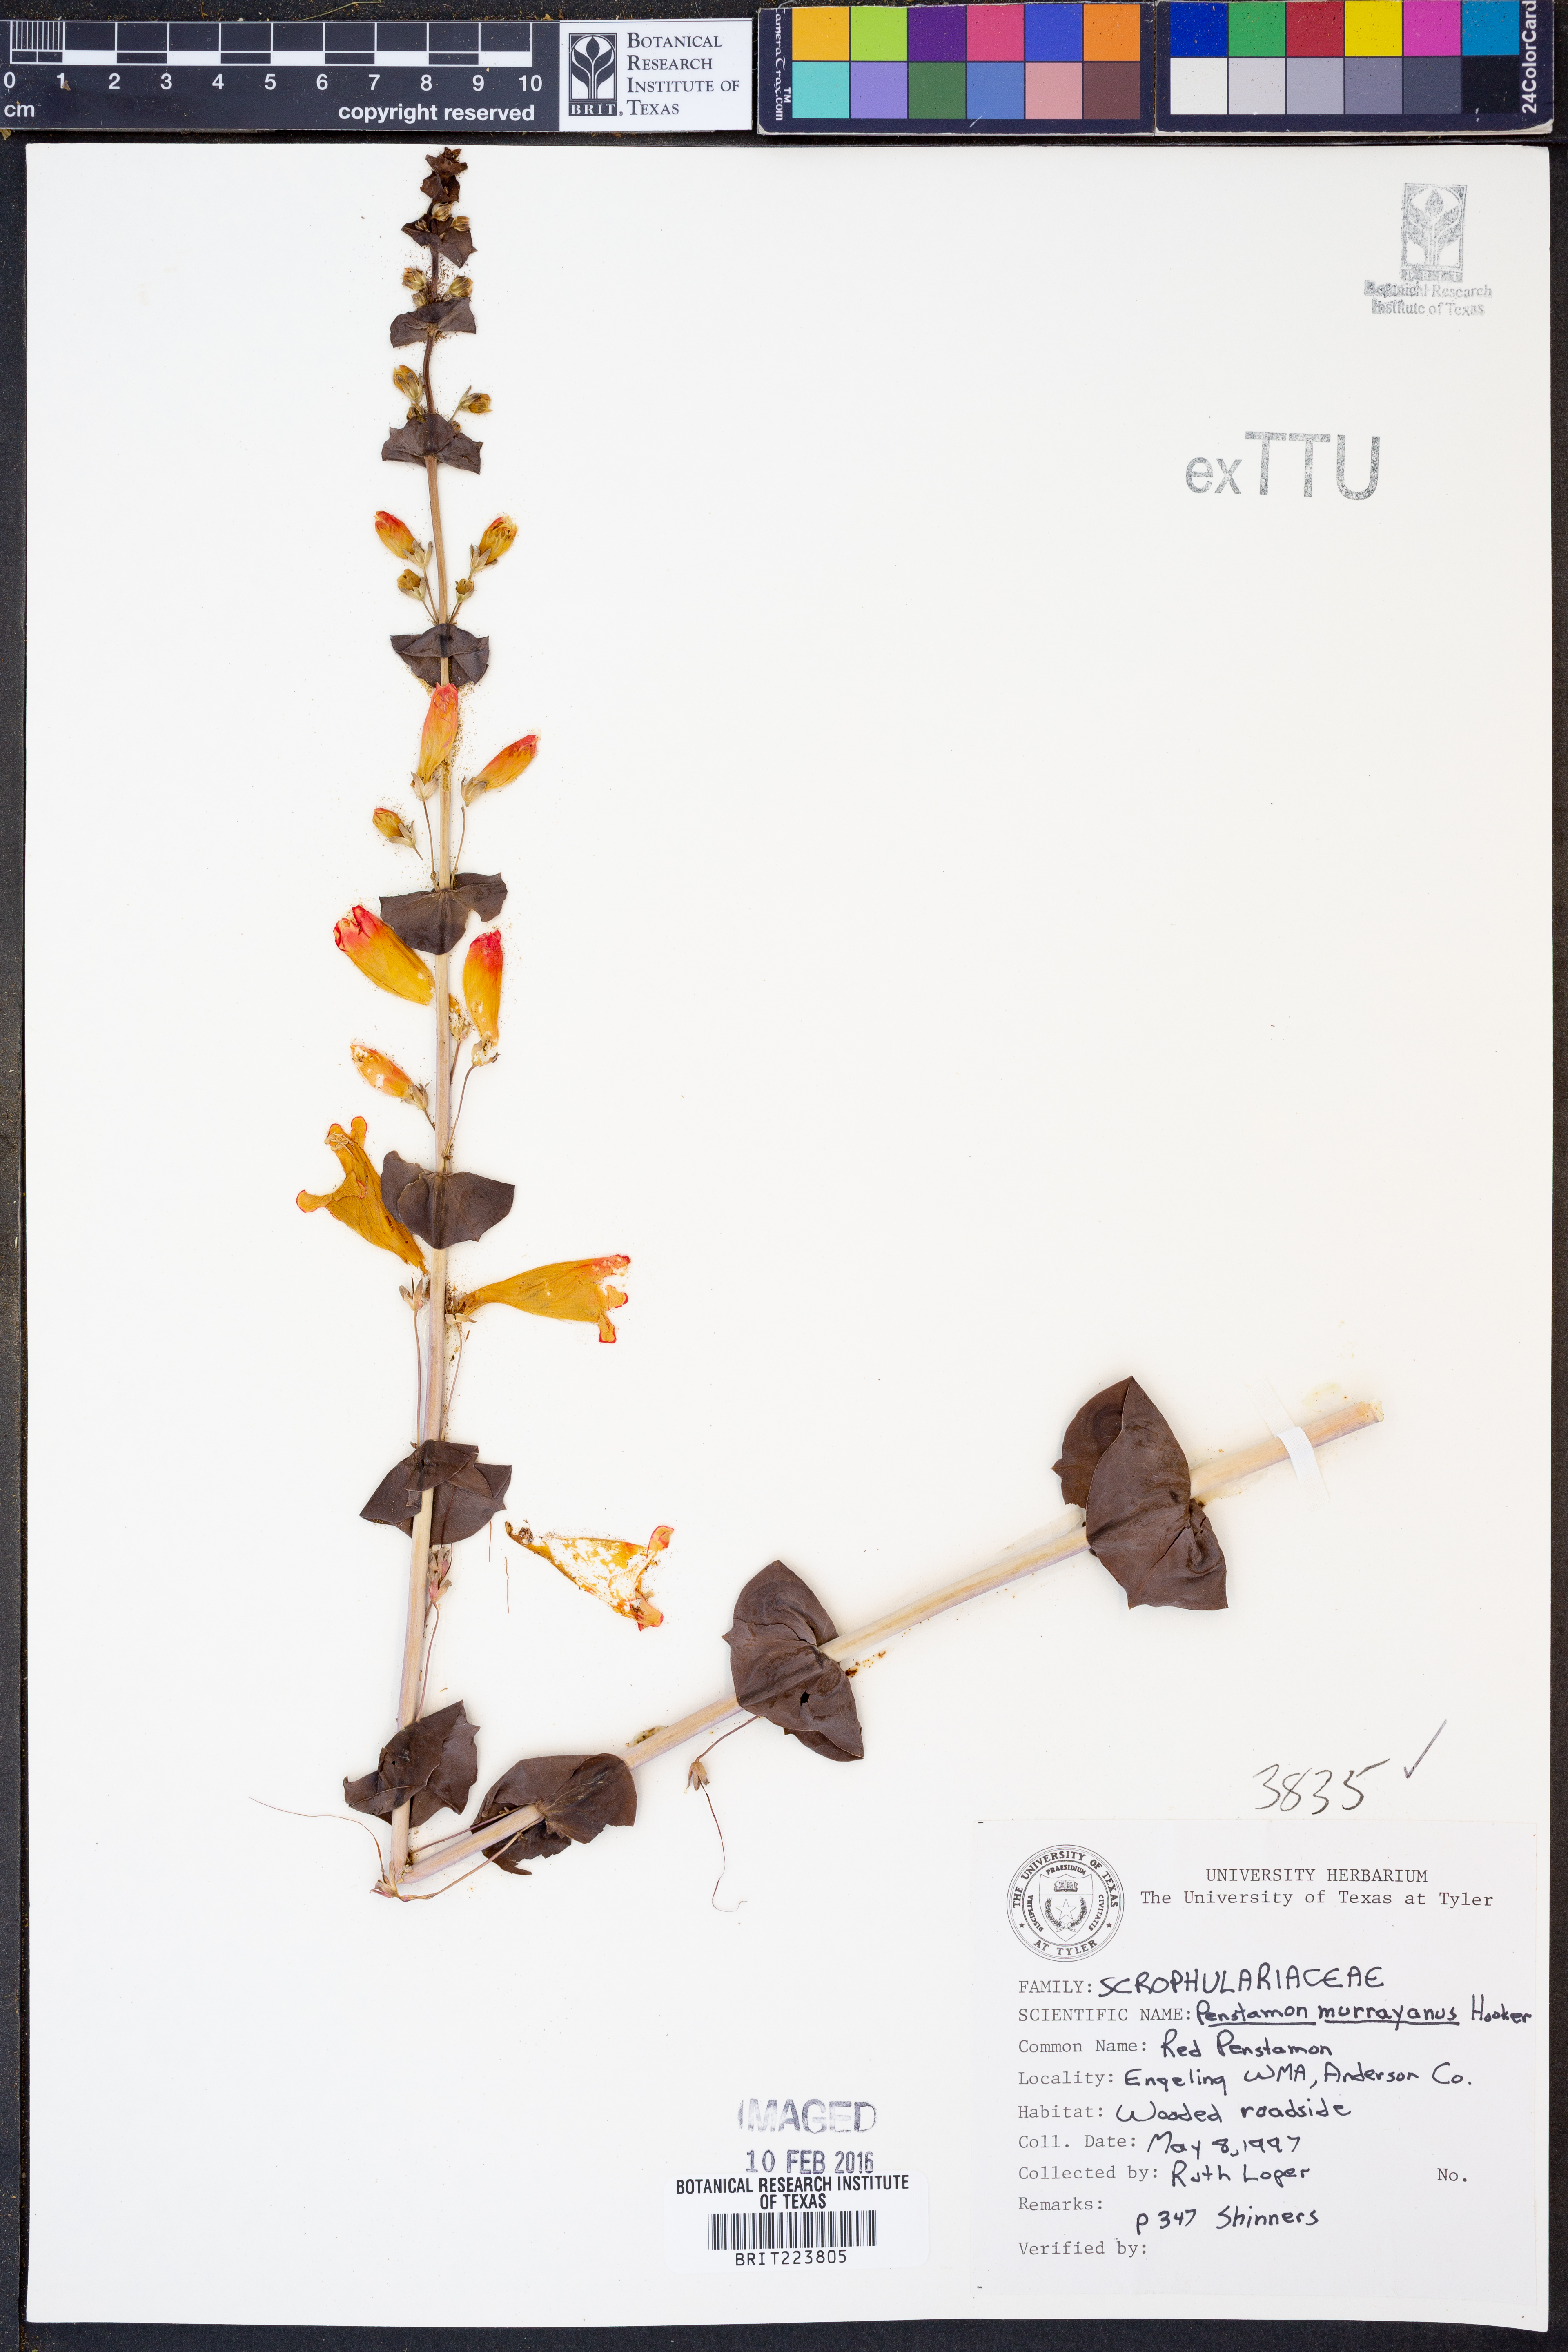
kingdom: Plantae
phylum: Tracheophyta
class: Magnoliopsida
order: Lamiales
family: Plantaginaceae
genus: Penstemon
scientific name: Penstemon murrayanus
